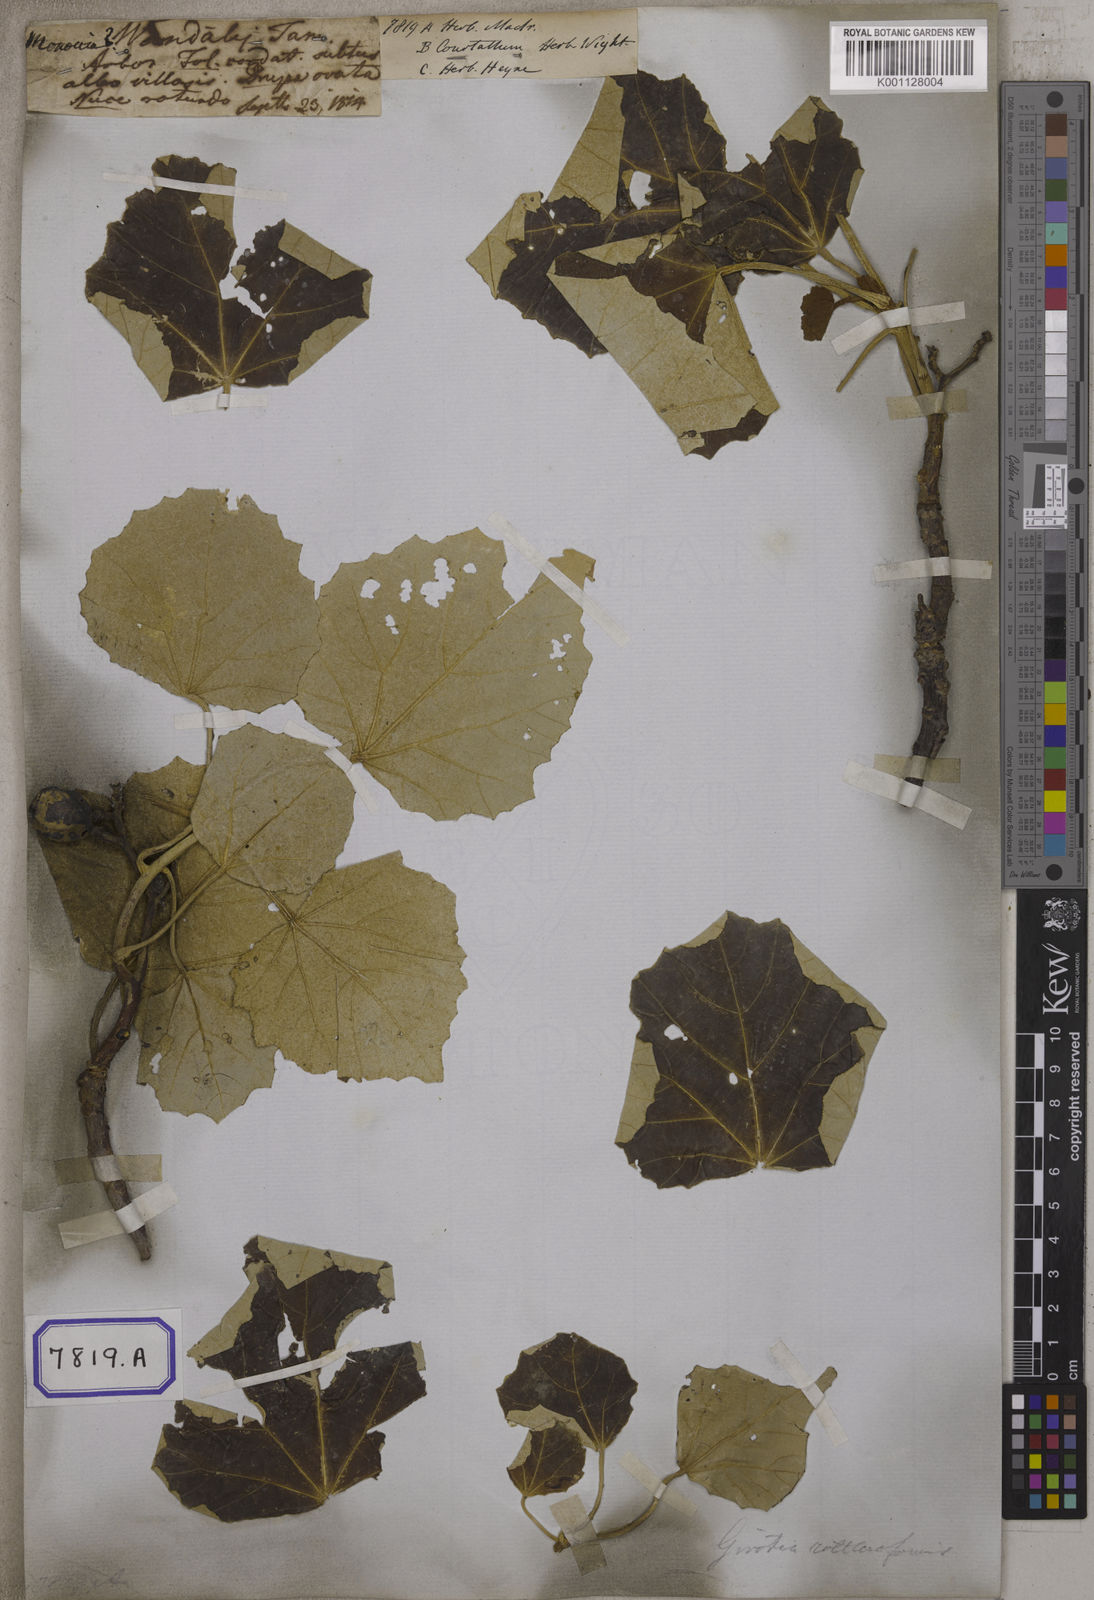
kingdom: Plantae
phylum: Tracheophyta
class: Magnoliopsida
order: Malpighiales
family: Euphorbiaceae
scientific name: Euphorbiaceae
